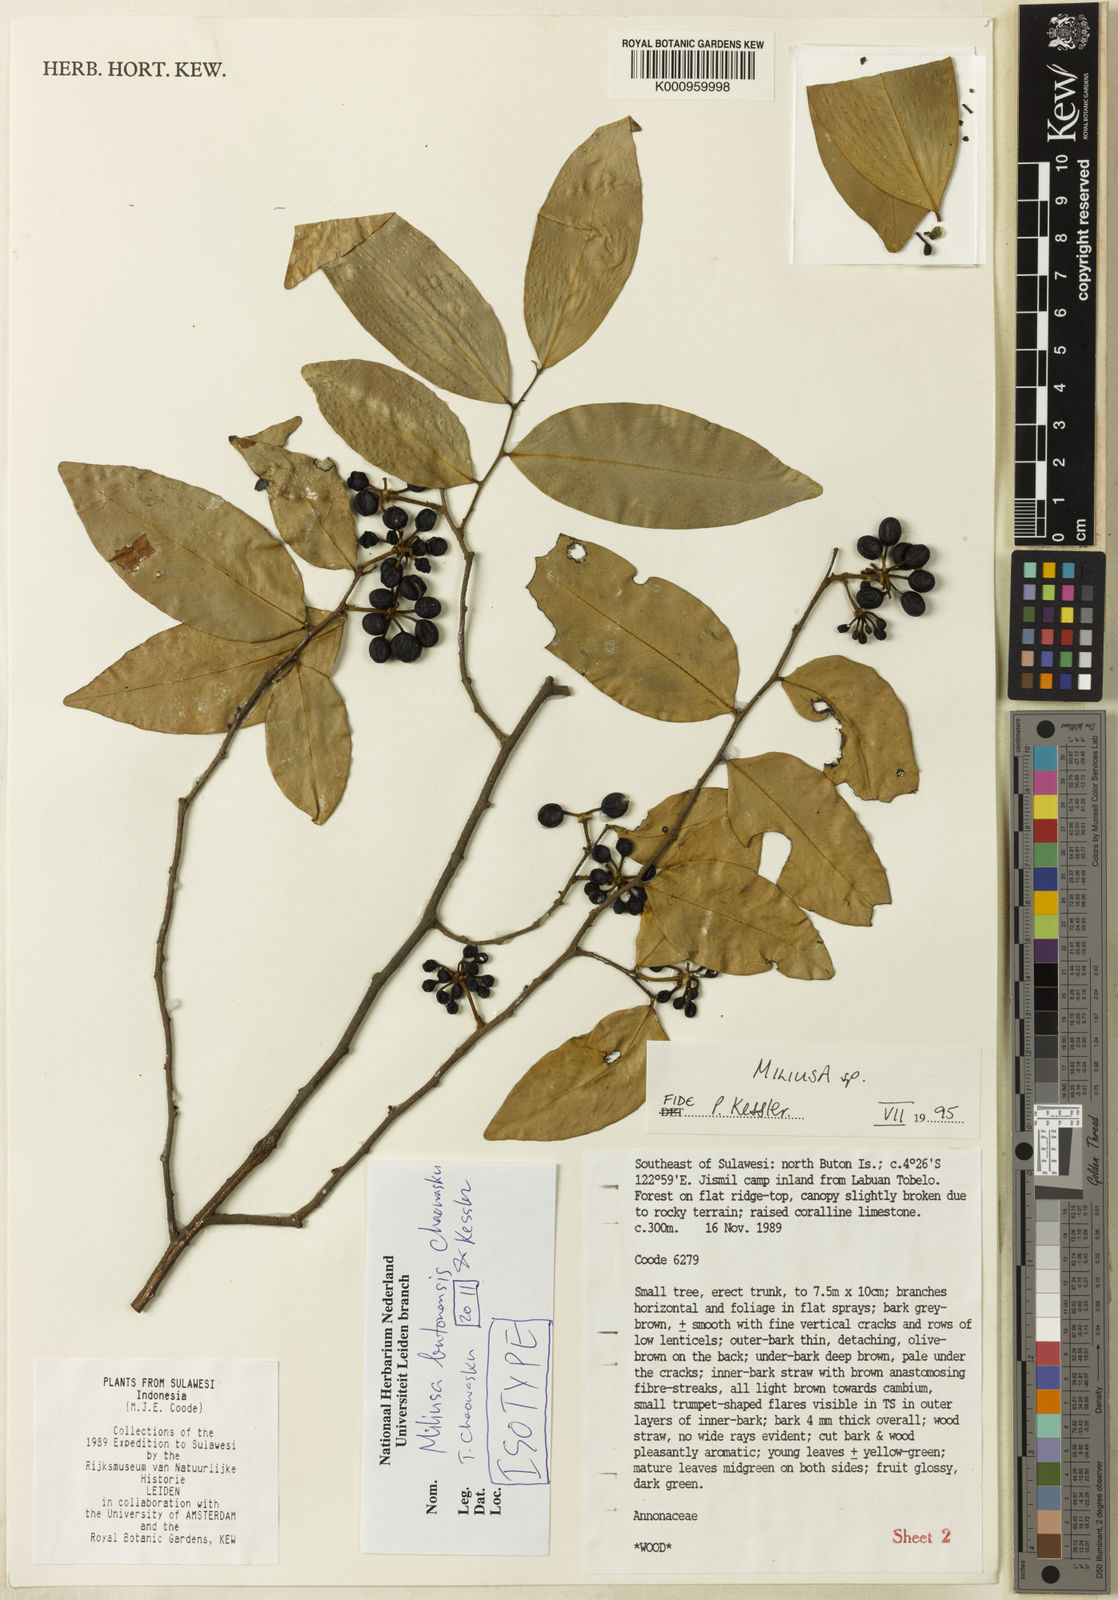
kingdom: Plantae
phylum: Tracheophyta
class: Magnoliopsida
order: Magnoliales
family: Annonaceae
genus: Miliusa
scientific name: Miliusa butonensis
